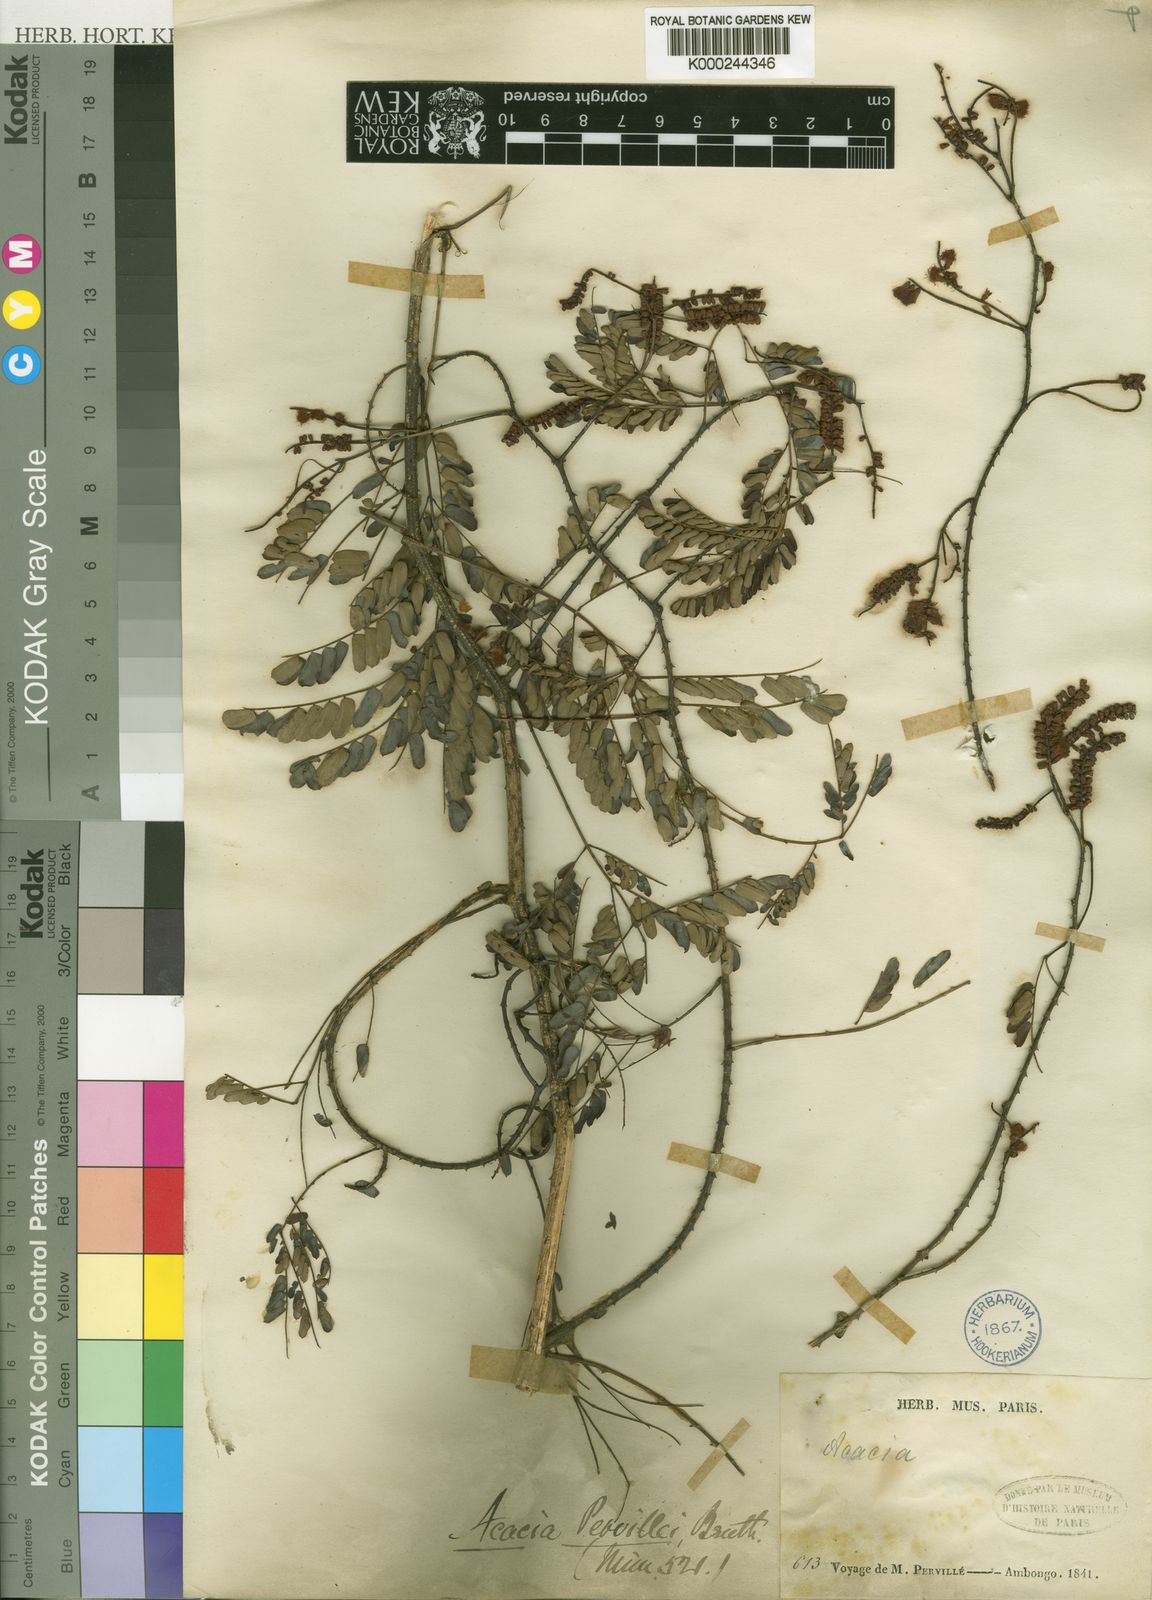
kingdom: Plantae
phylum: Tracheophyta
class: Magnoliopsida
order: Fabales
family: Fabaceae
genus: Senegalia
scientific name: Senegalia pervillei
